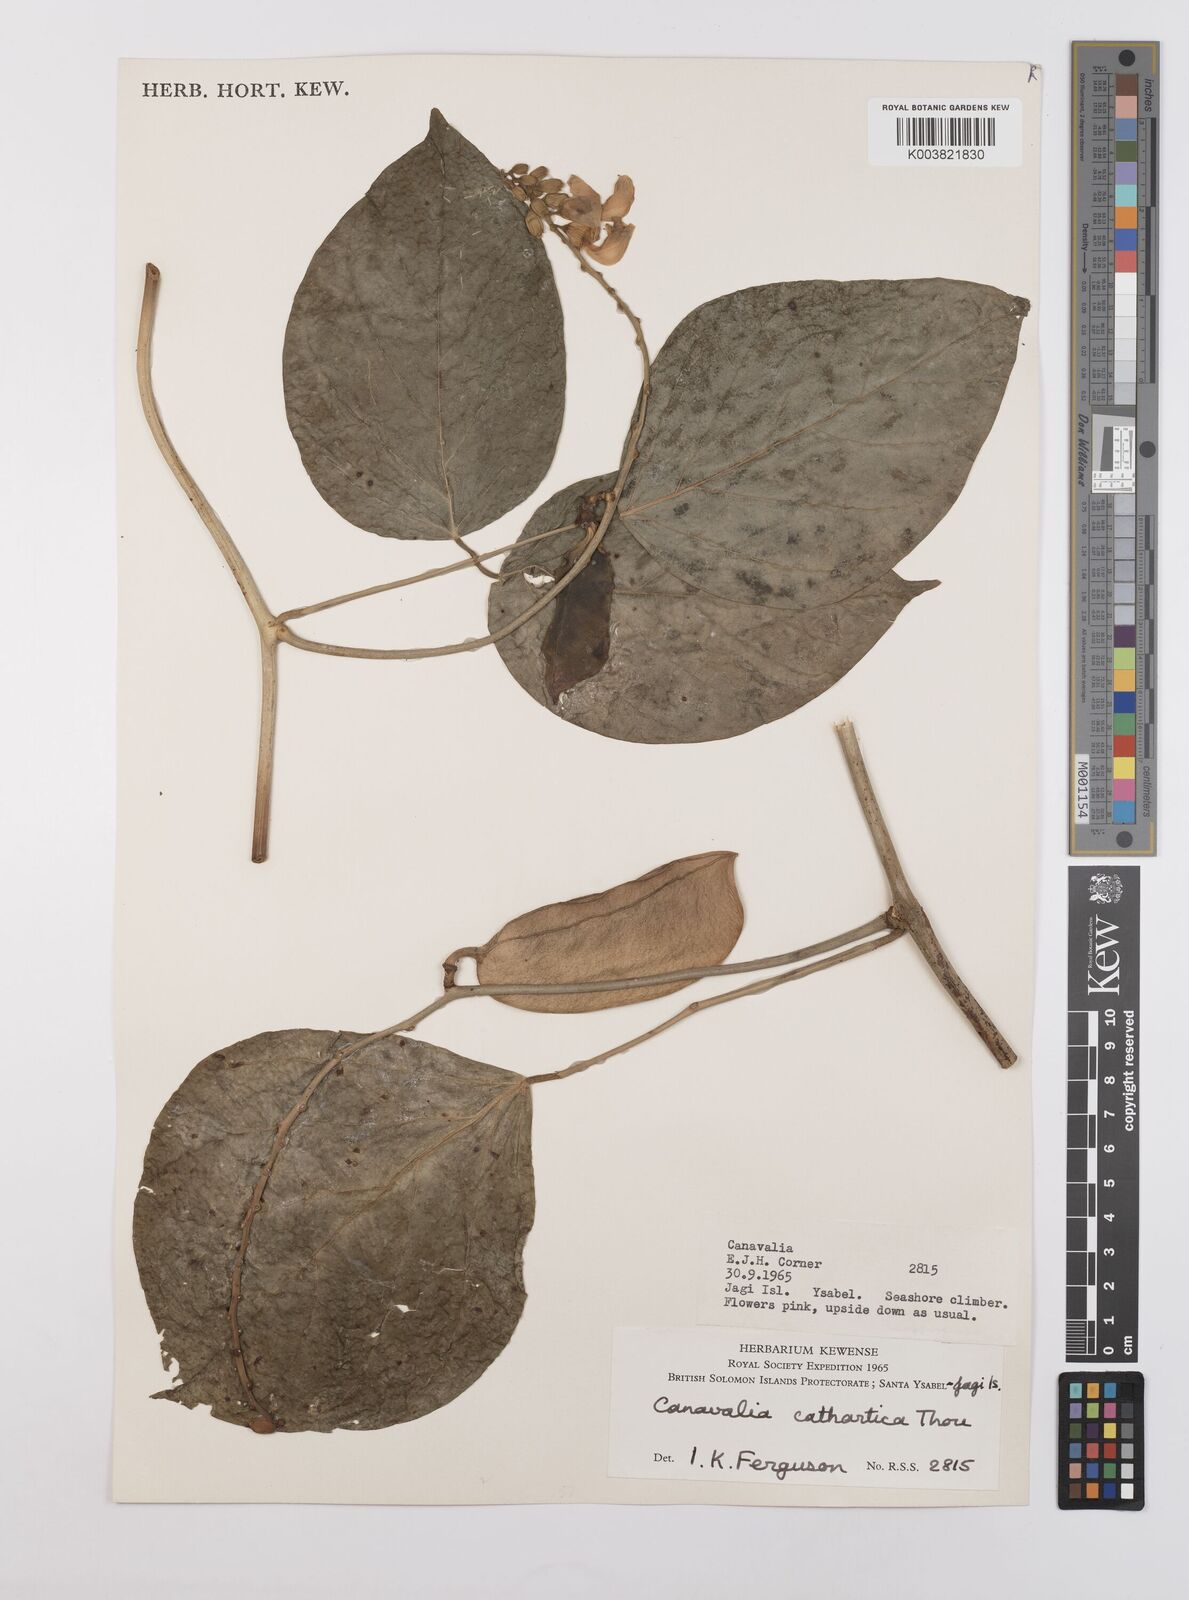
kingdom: Plantae
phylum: Tracheophyta
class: Magnoliopsida
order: Fabales
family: Fabaceae
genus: Canavalia
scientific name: Canavalia cathartica
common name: Maunaloa
